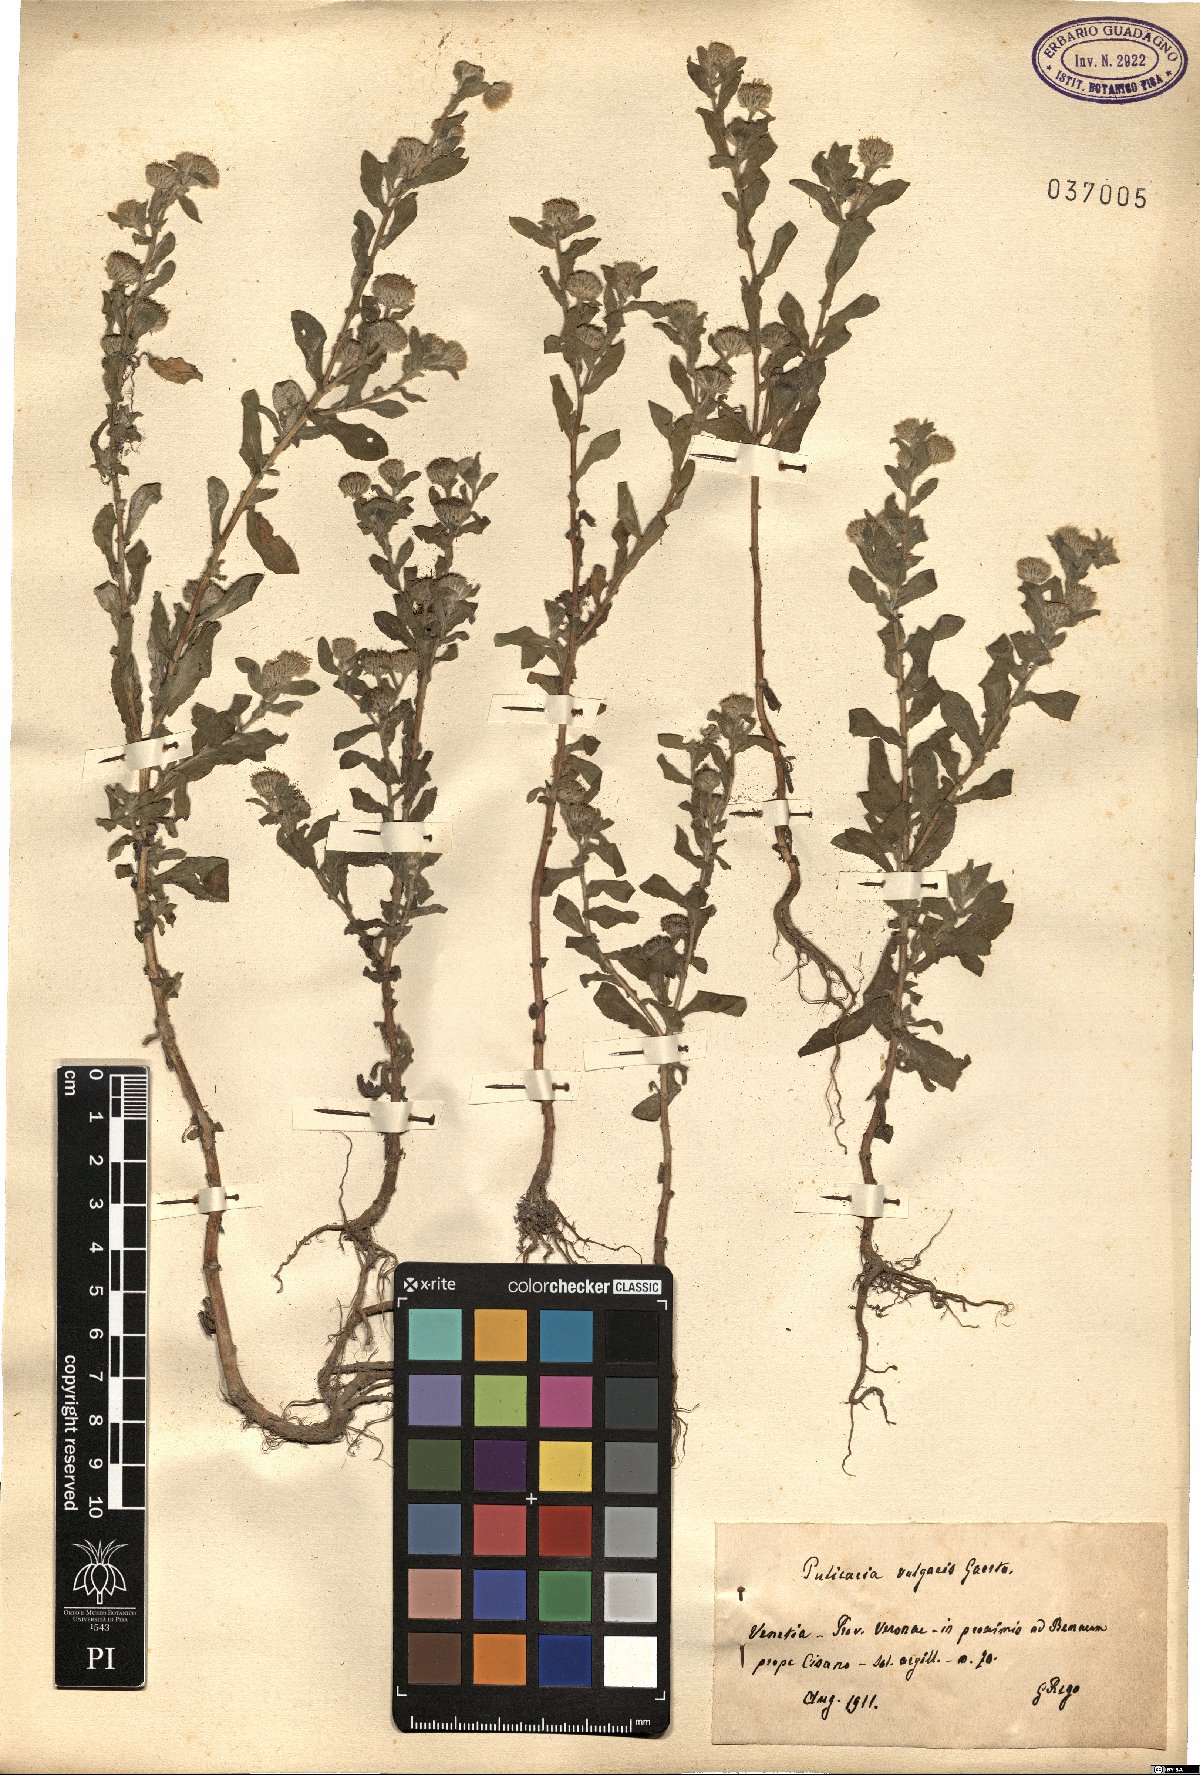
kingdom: Plantae
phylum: Tracheophyta
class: Magnoliopsida
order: Asterales
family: Asteraceae
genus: Pulicaria
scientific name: Pulicaria vulgaris
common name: Small fleabane
